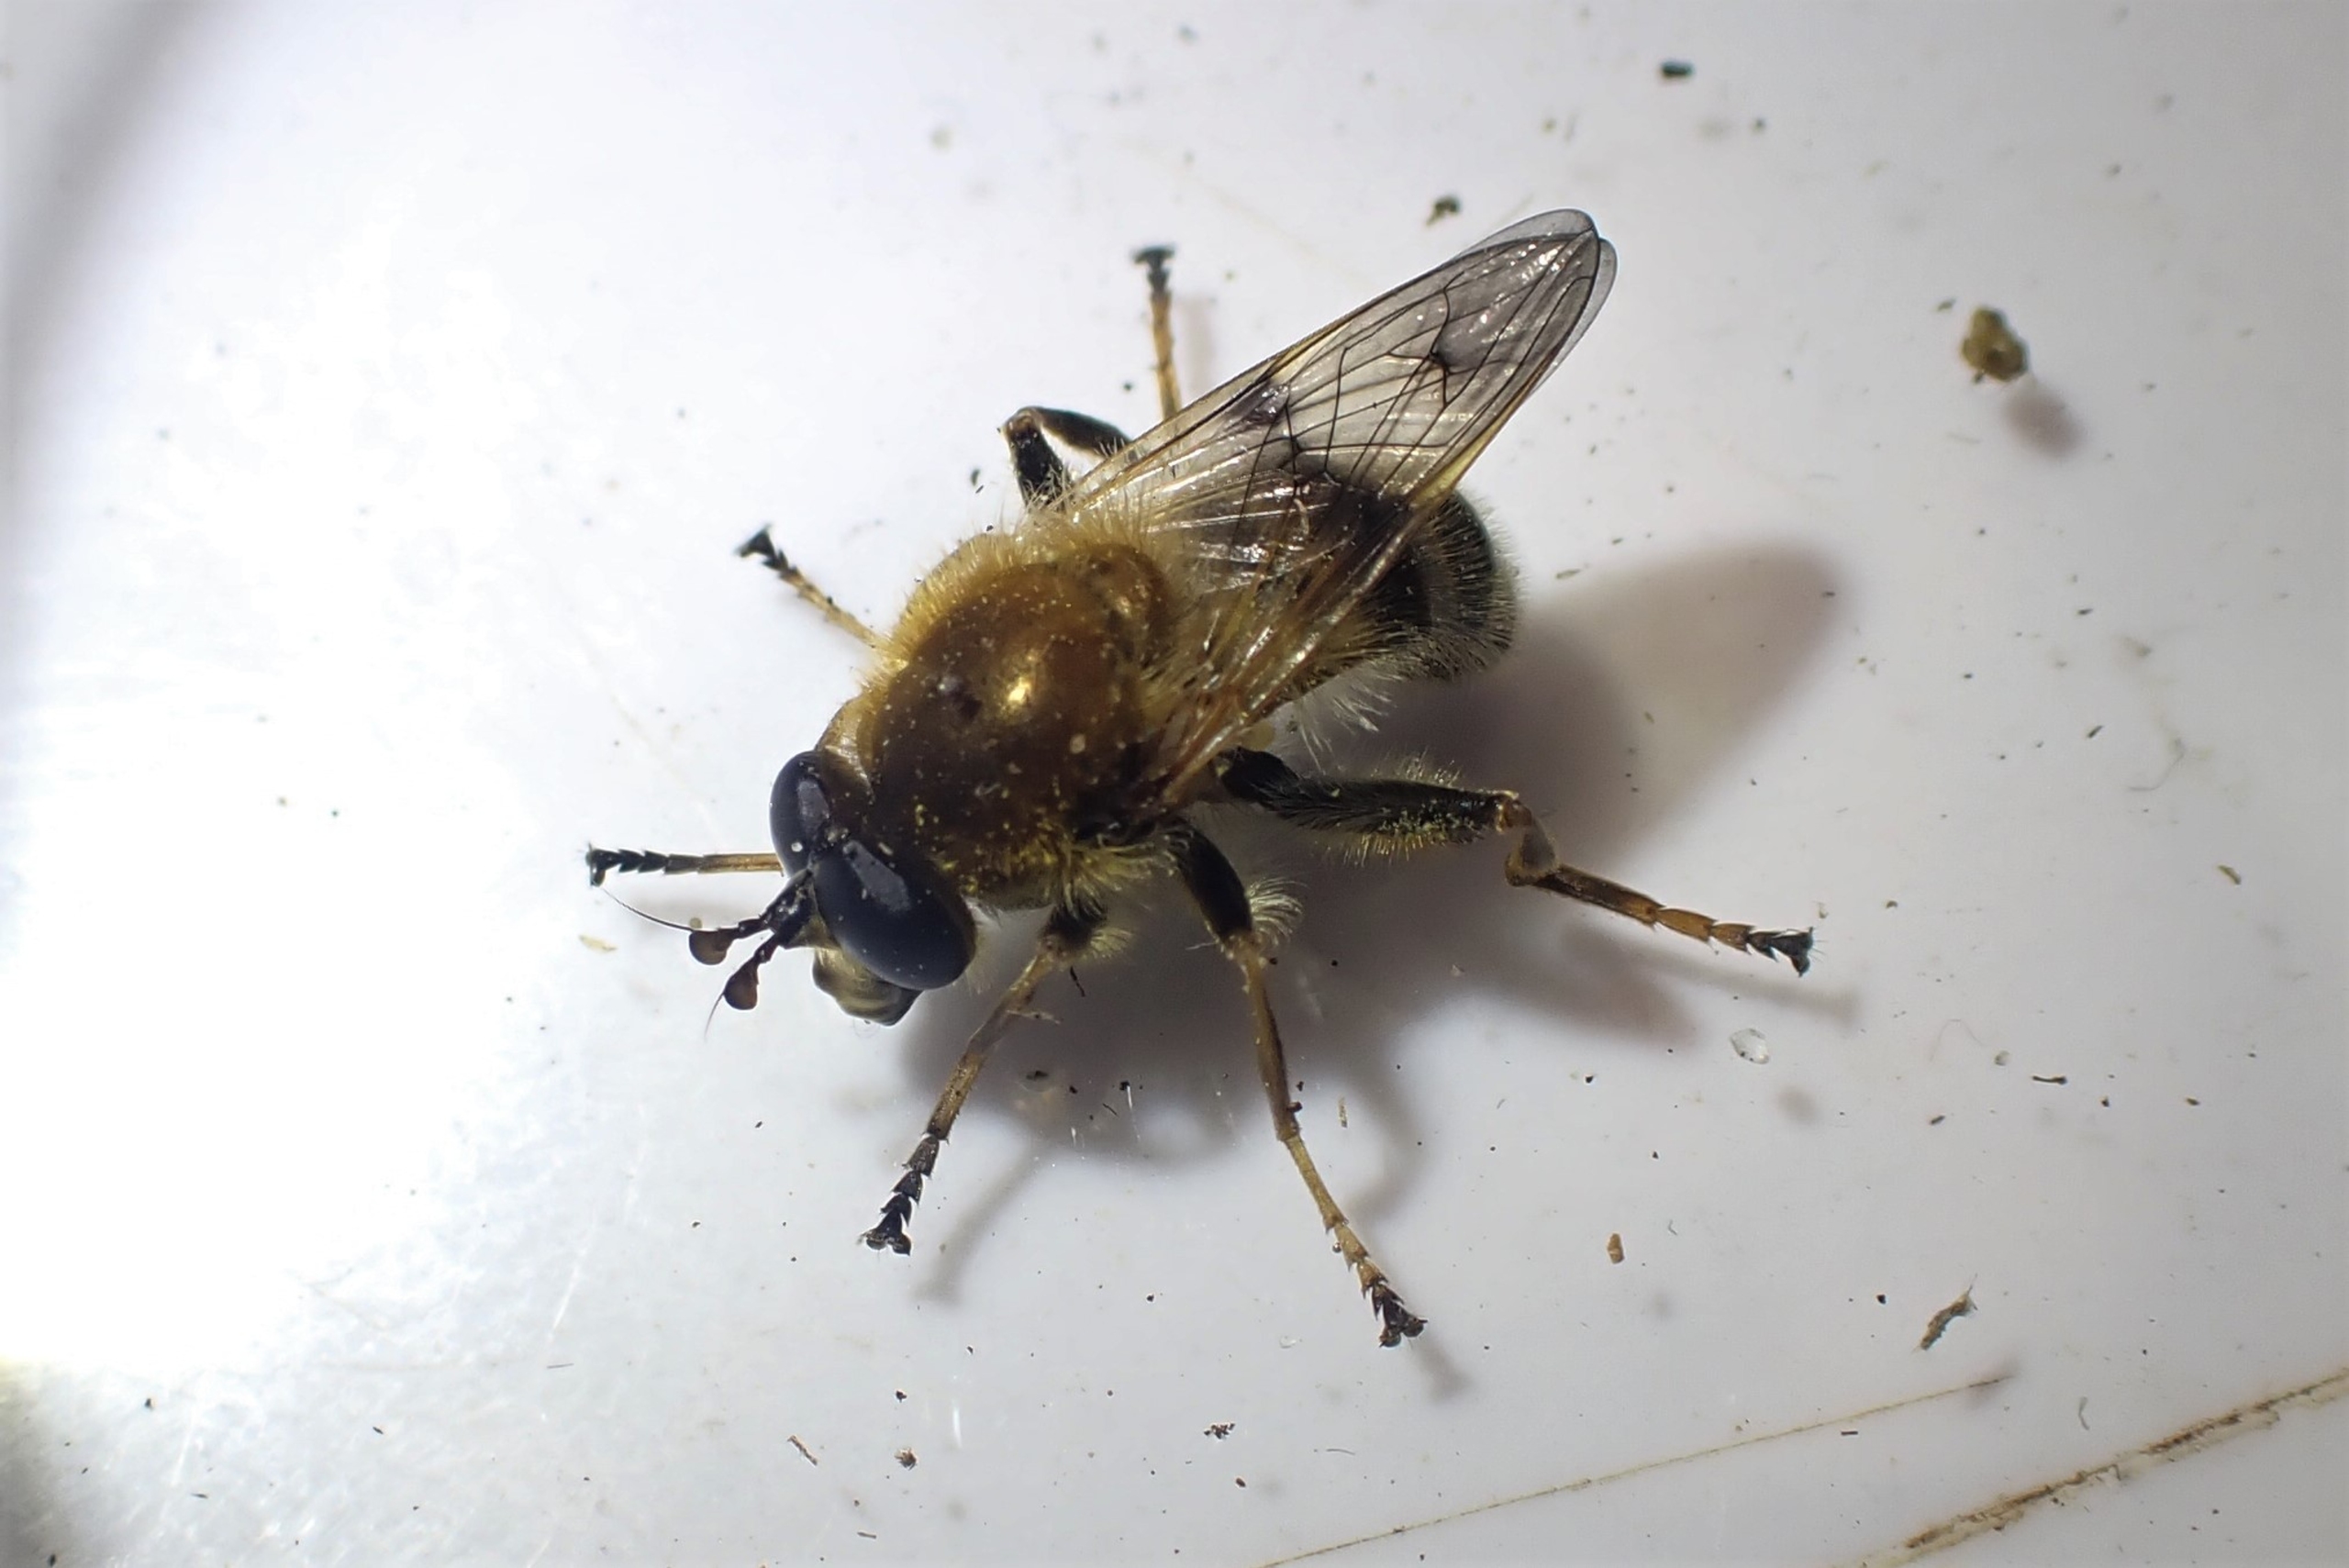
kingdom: Animalia
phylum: Arthropoda
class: Insecta
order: Diptera
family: Syrphidae
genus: Criorhina
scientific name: Criorhina asilica
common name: Bi-pelssvirreflue
